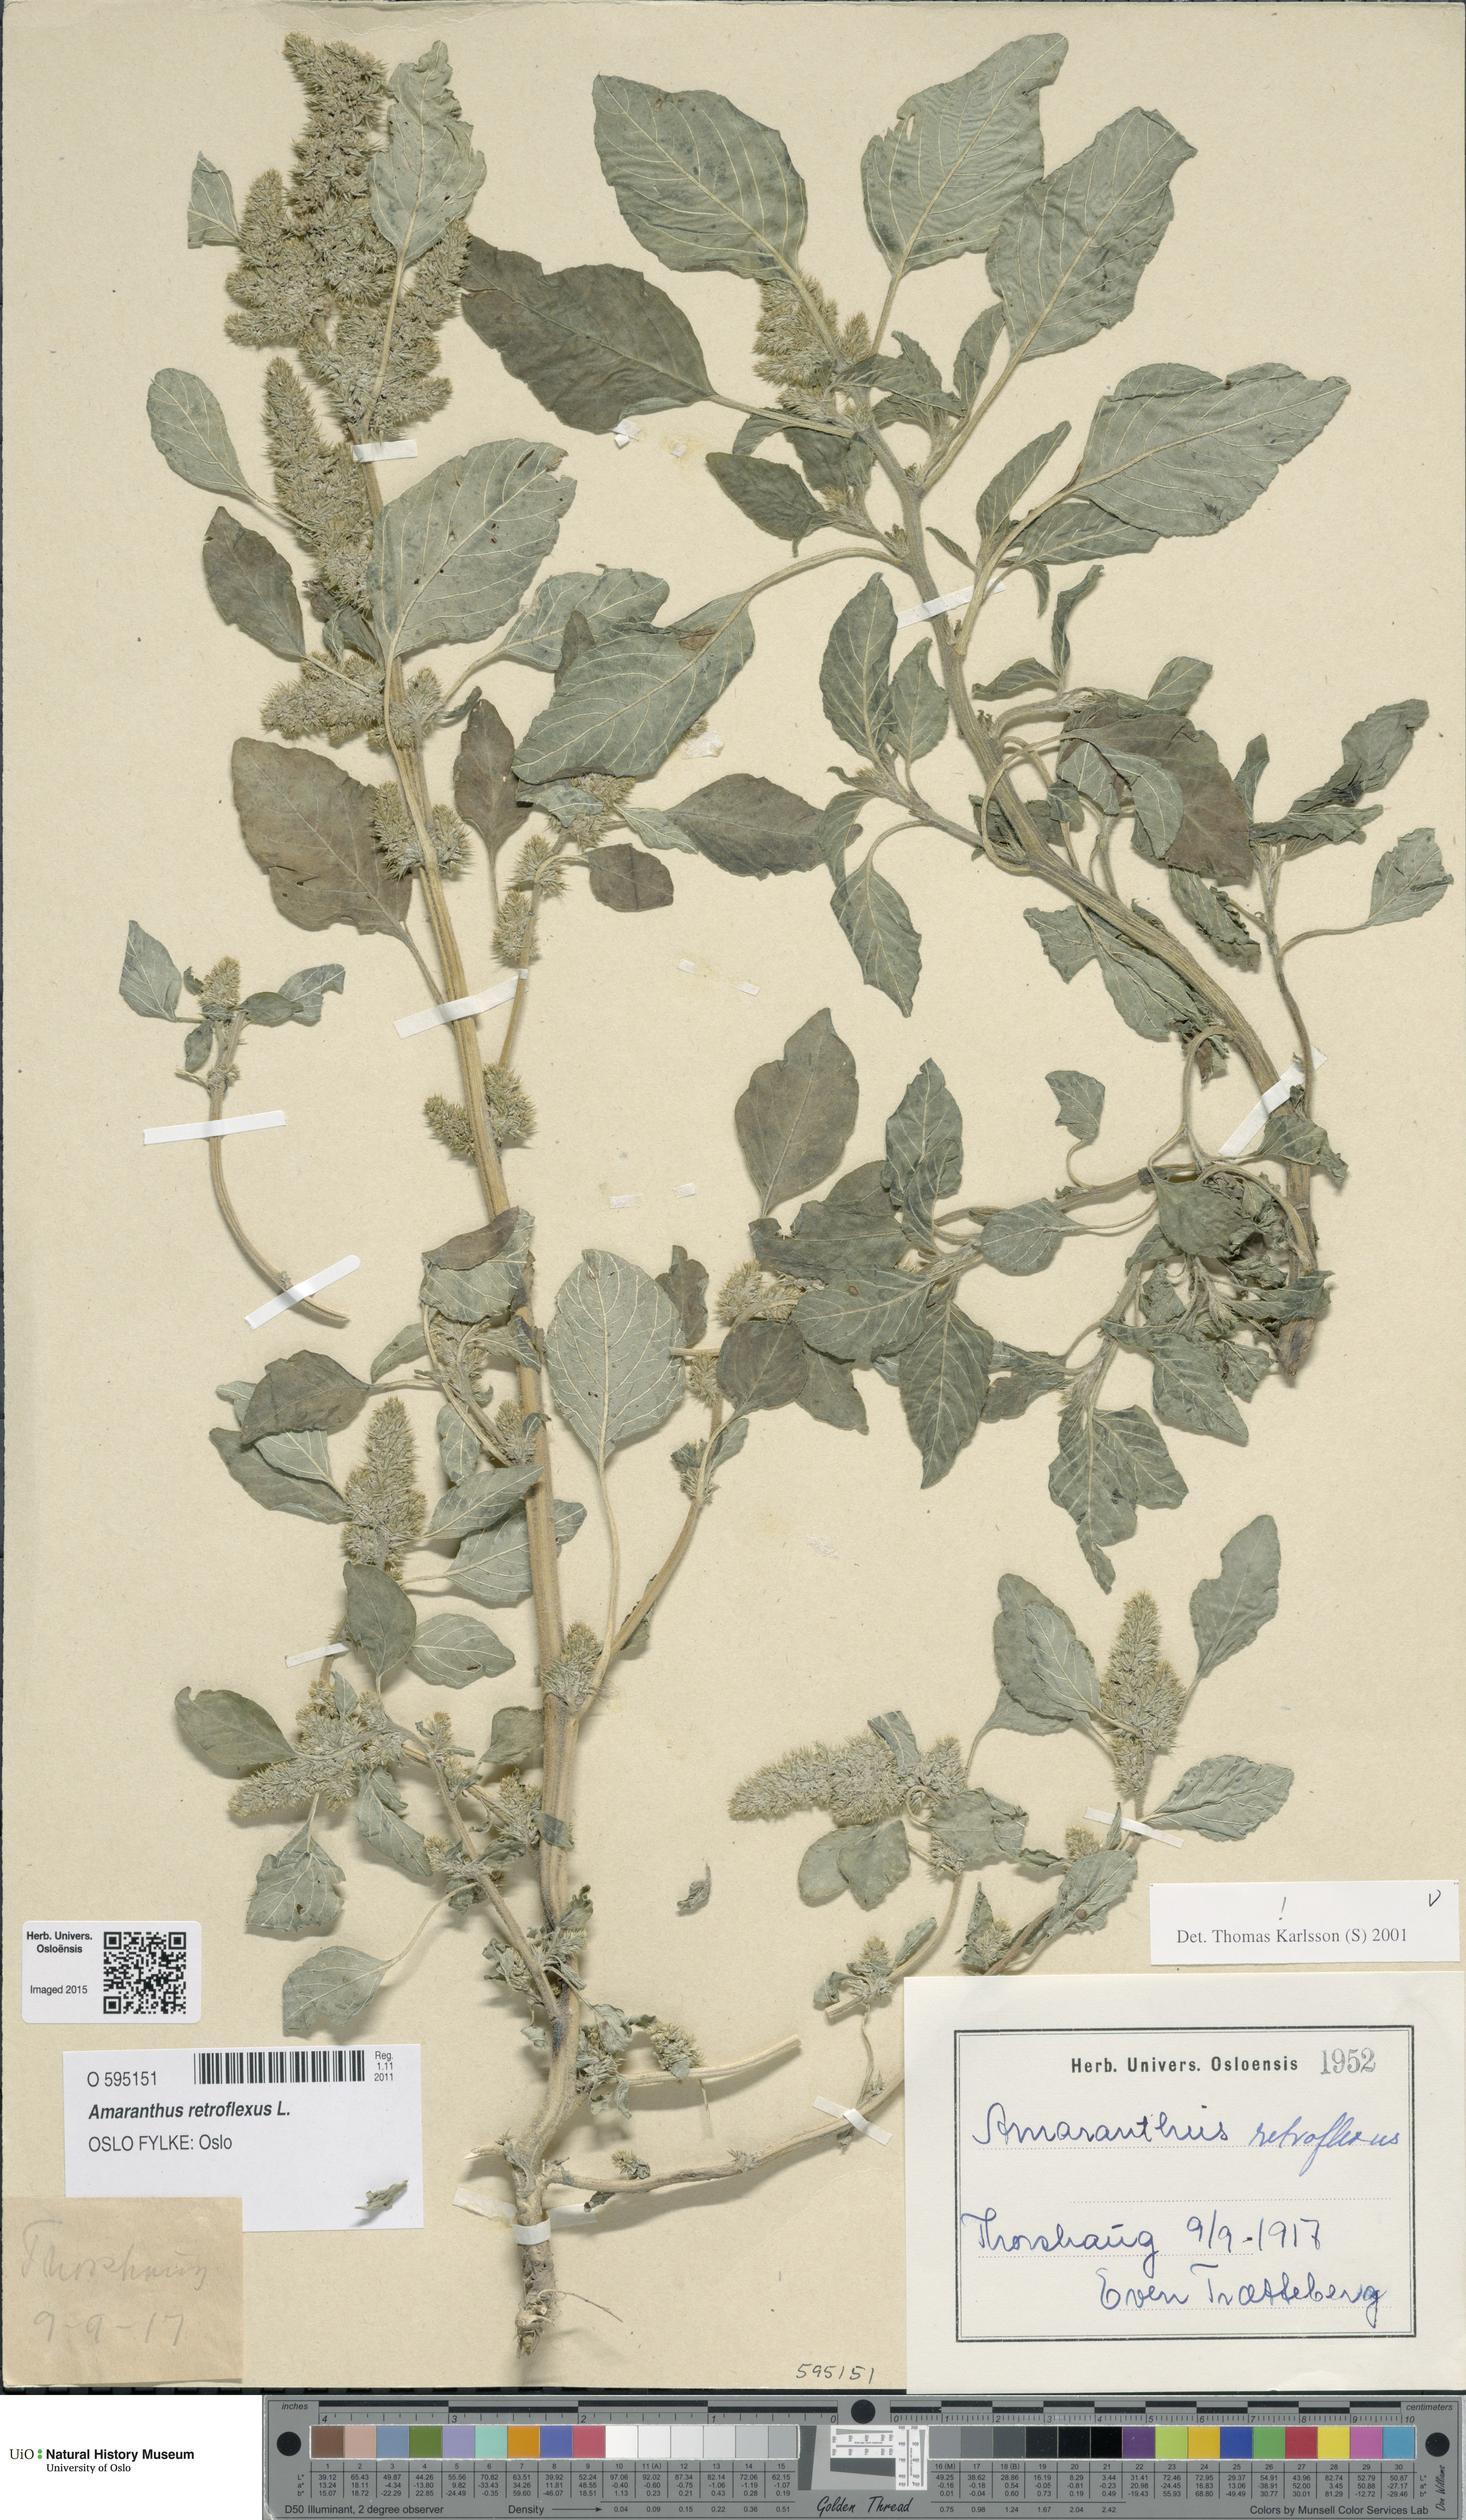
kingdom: Plantae
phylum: Tracheophyta
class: Magnoliopsida
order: Caryophyllales
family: Amaranthaceae
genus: Amaranthus
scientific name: Amaranthus retroflexus
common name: Redroot amaranth
